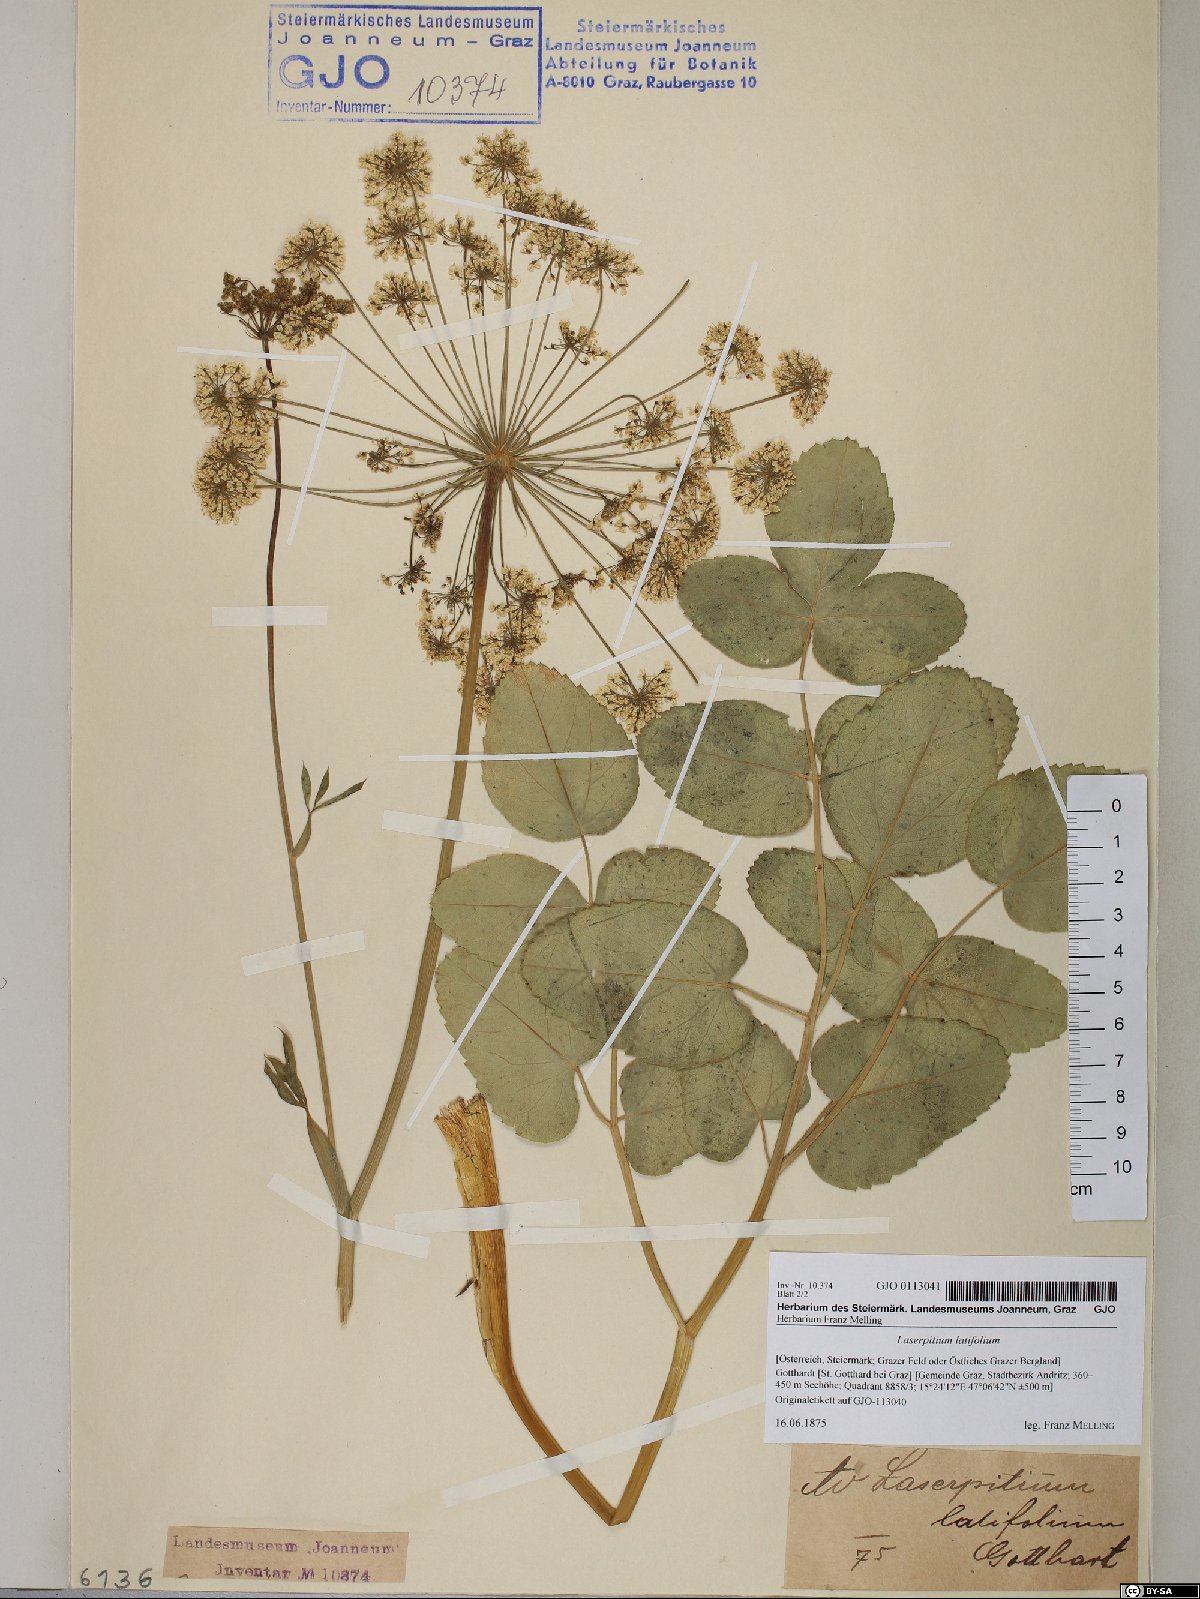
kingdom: Plantae
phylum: Tracheophyta
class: Magnoliopsida
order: Apiales
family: Apiaceae
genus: Laserpitium
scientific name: Laserpitium latifolium
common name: Broadleaf sermountain
